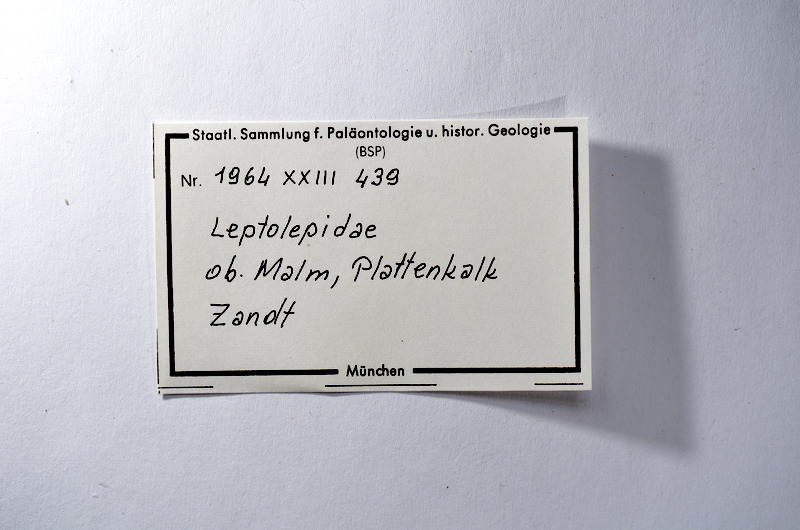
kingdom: Animalia
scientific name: Animalia
